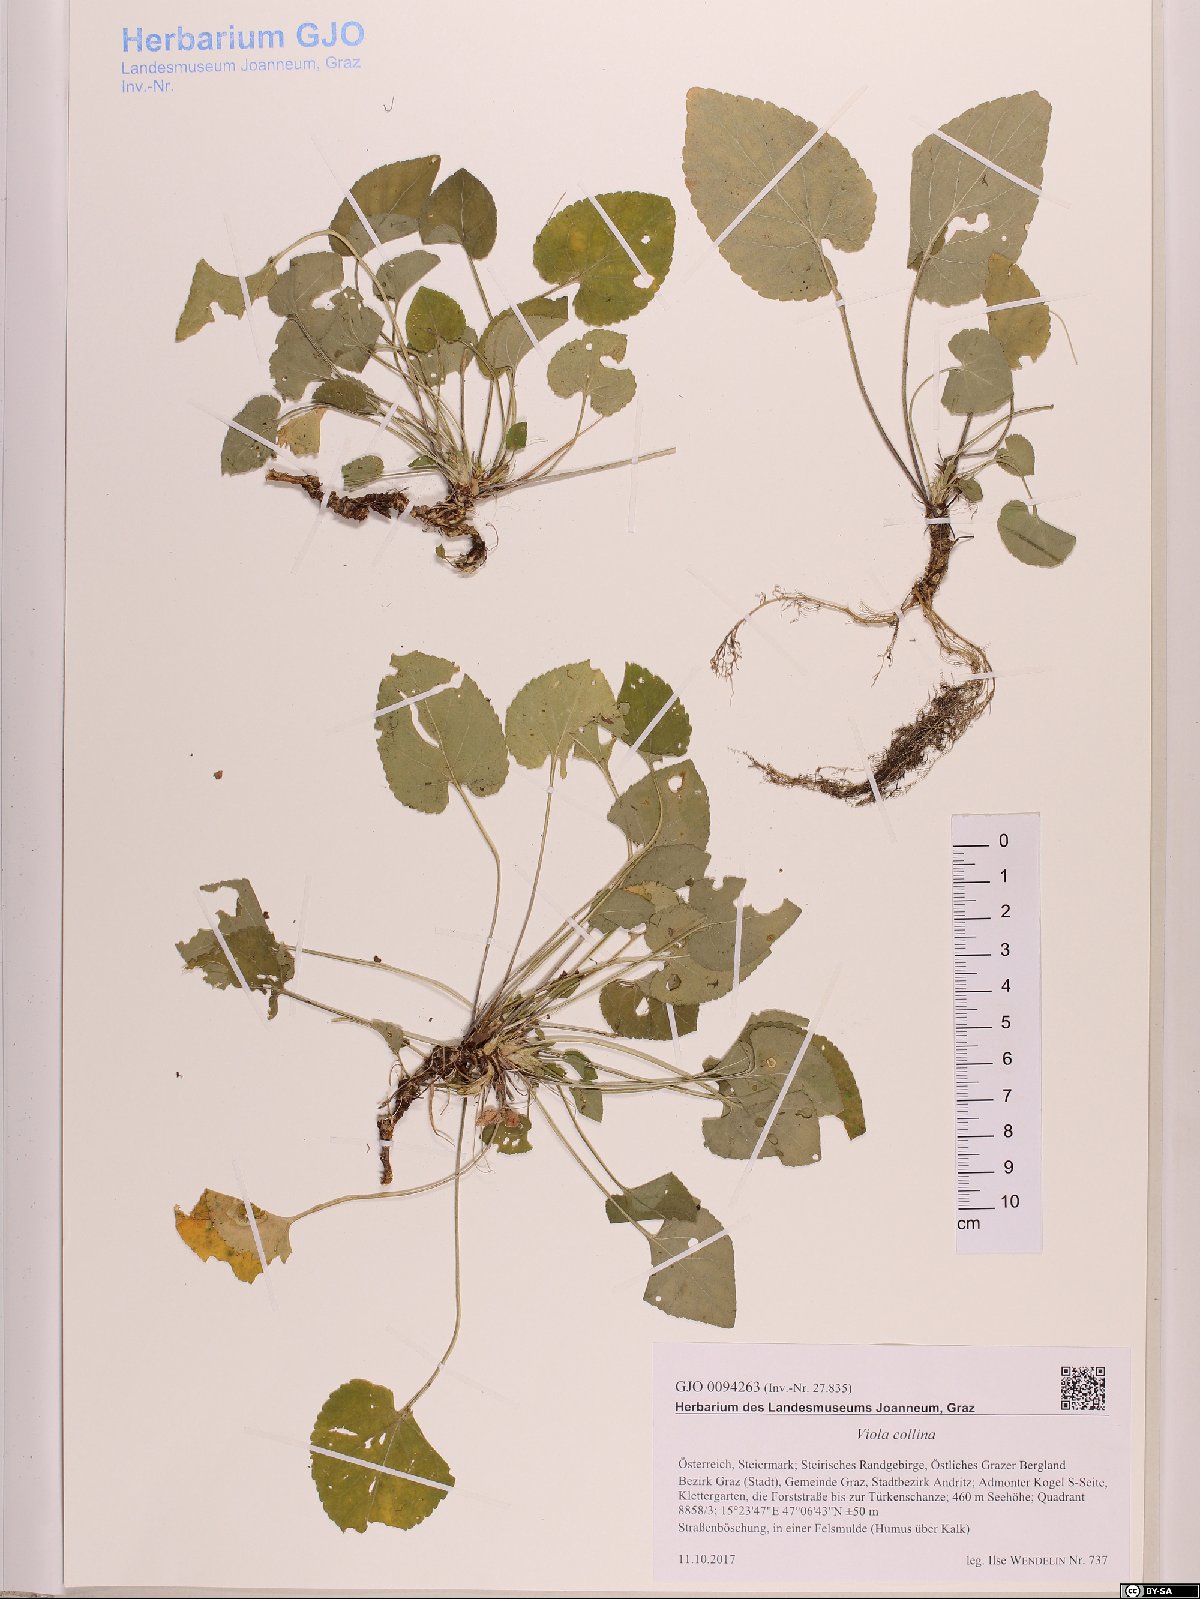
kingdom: Plantae
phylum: Tracheophyta
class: Magnoliopsida
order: Malpighiales
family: Violaceae
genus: Viola
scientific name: Viola collina
